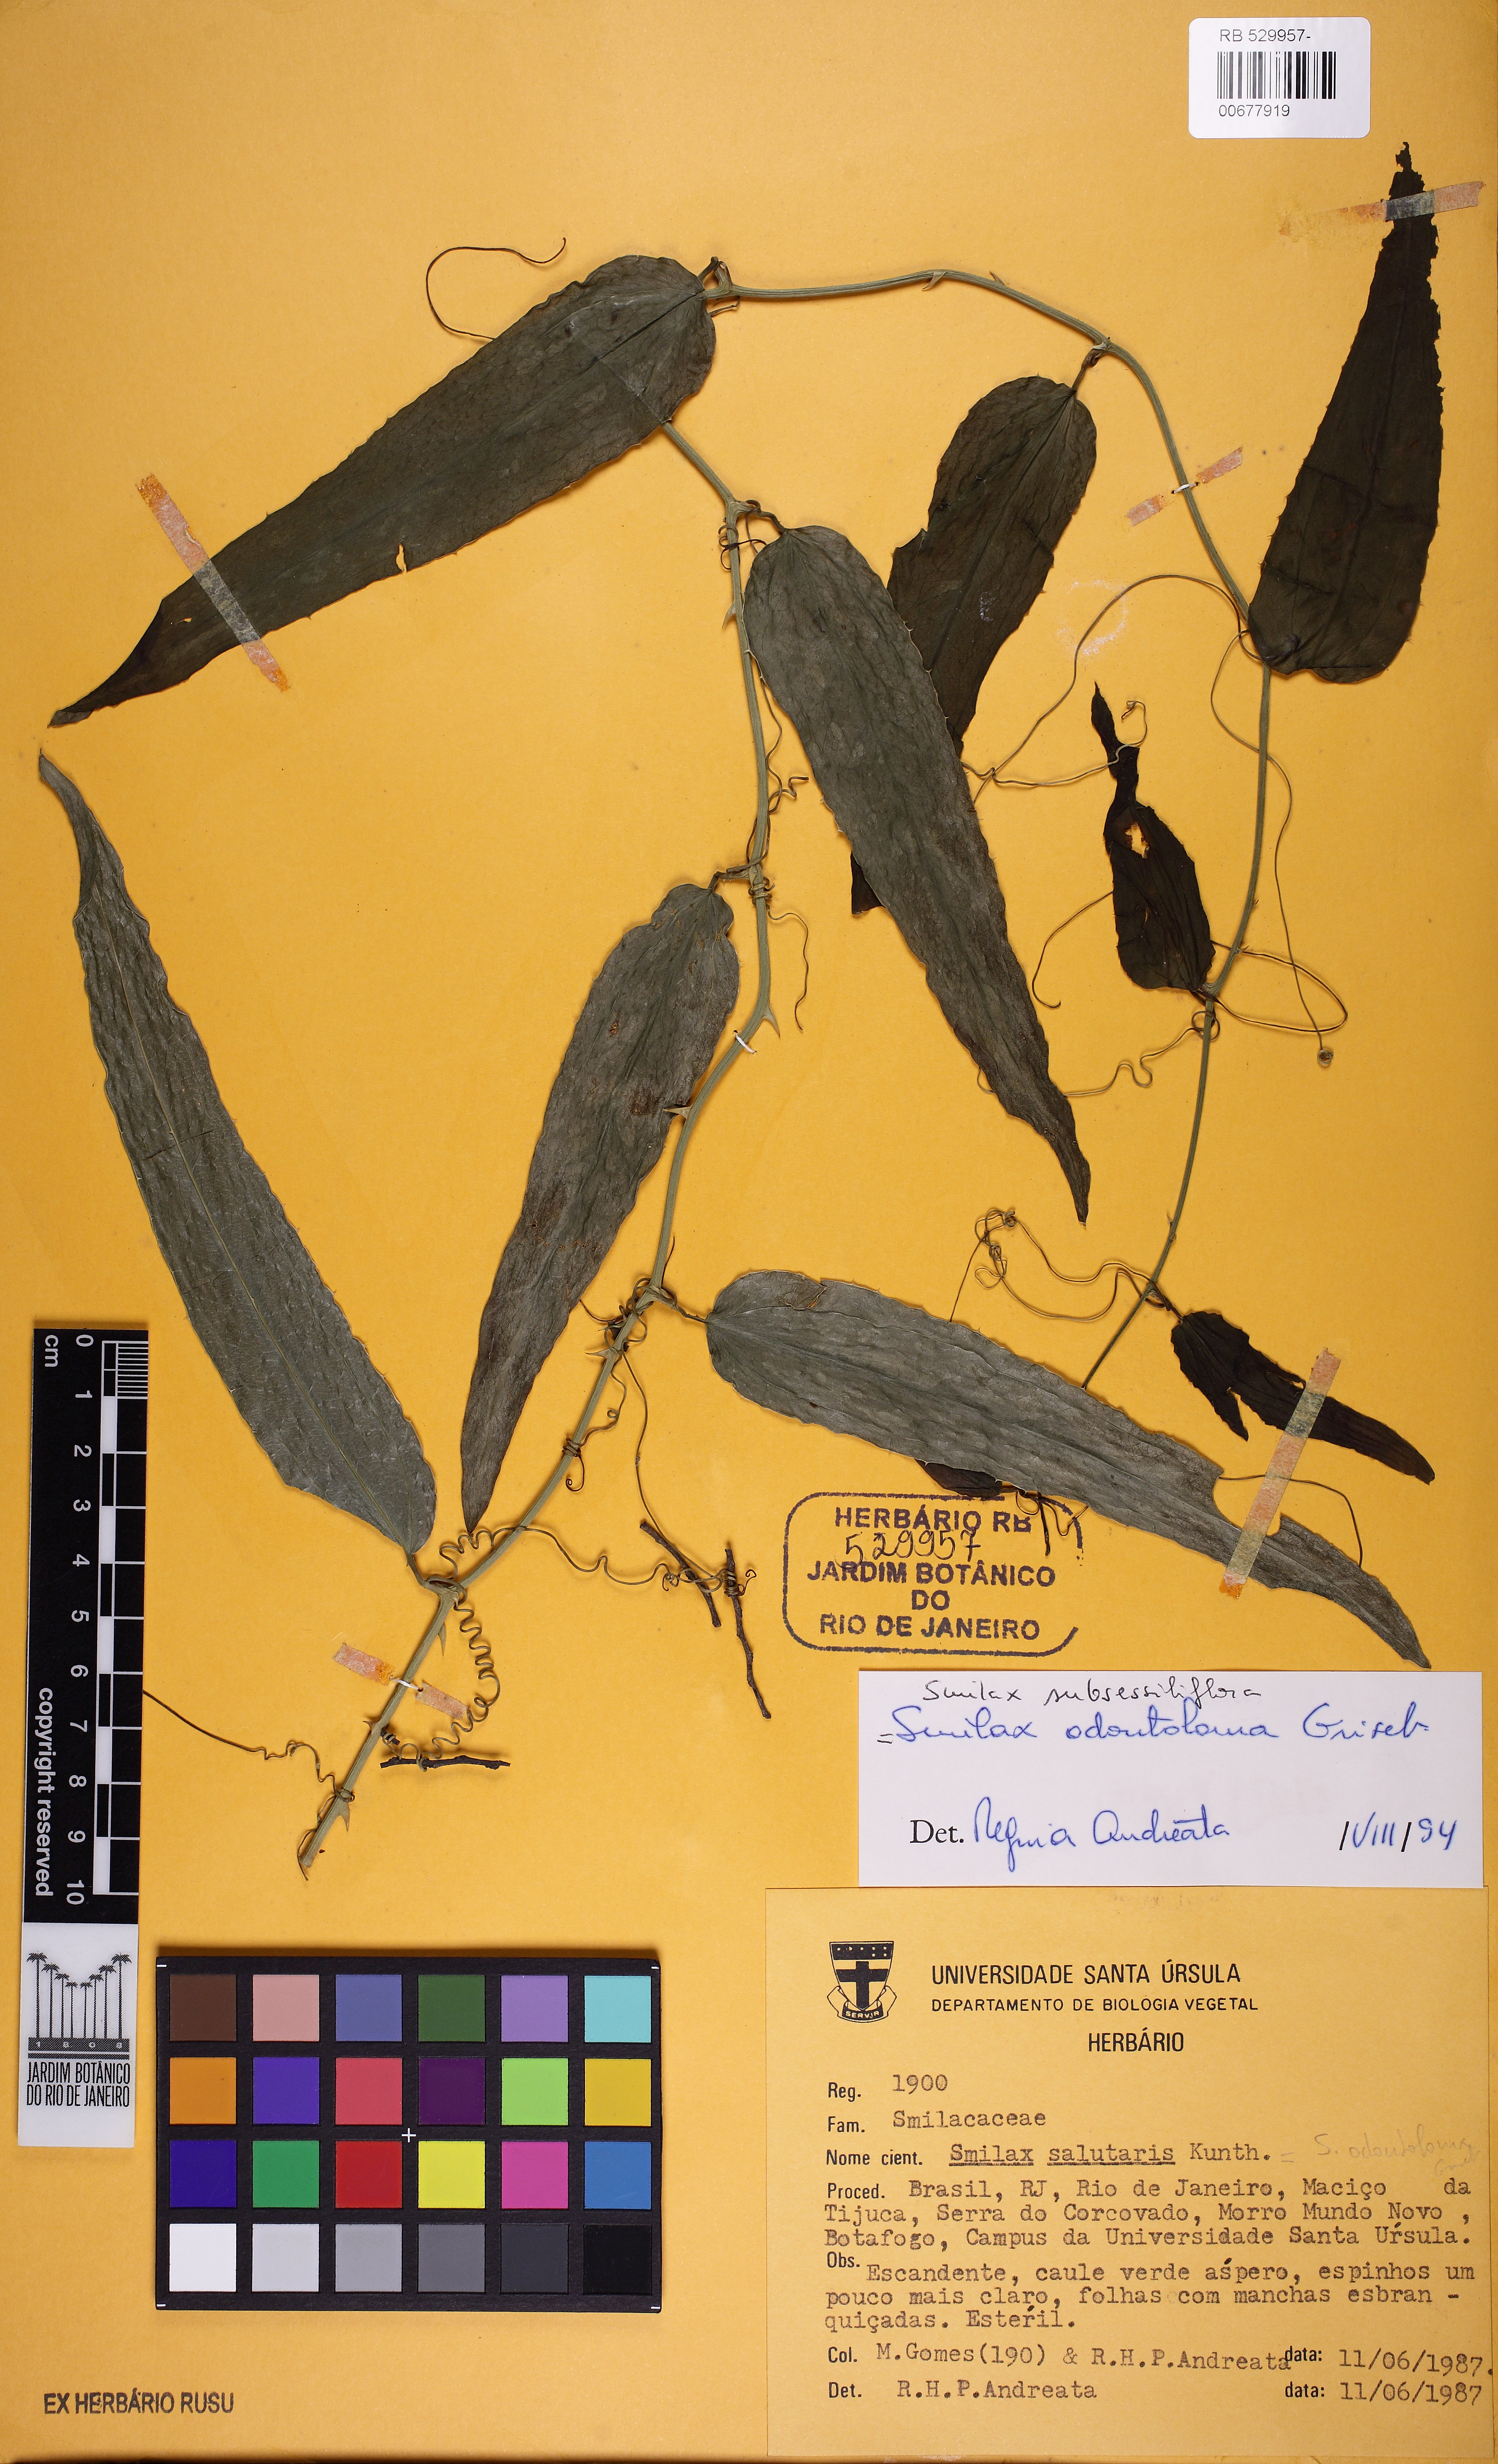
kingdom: Plantae
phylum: Tracheophyta
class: Liliopsida
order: Liliales
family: Smilacaceae
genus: Smilax
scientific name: Smilax subsessiliflora
